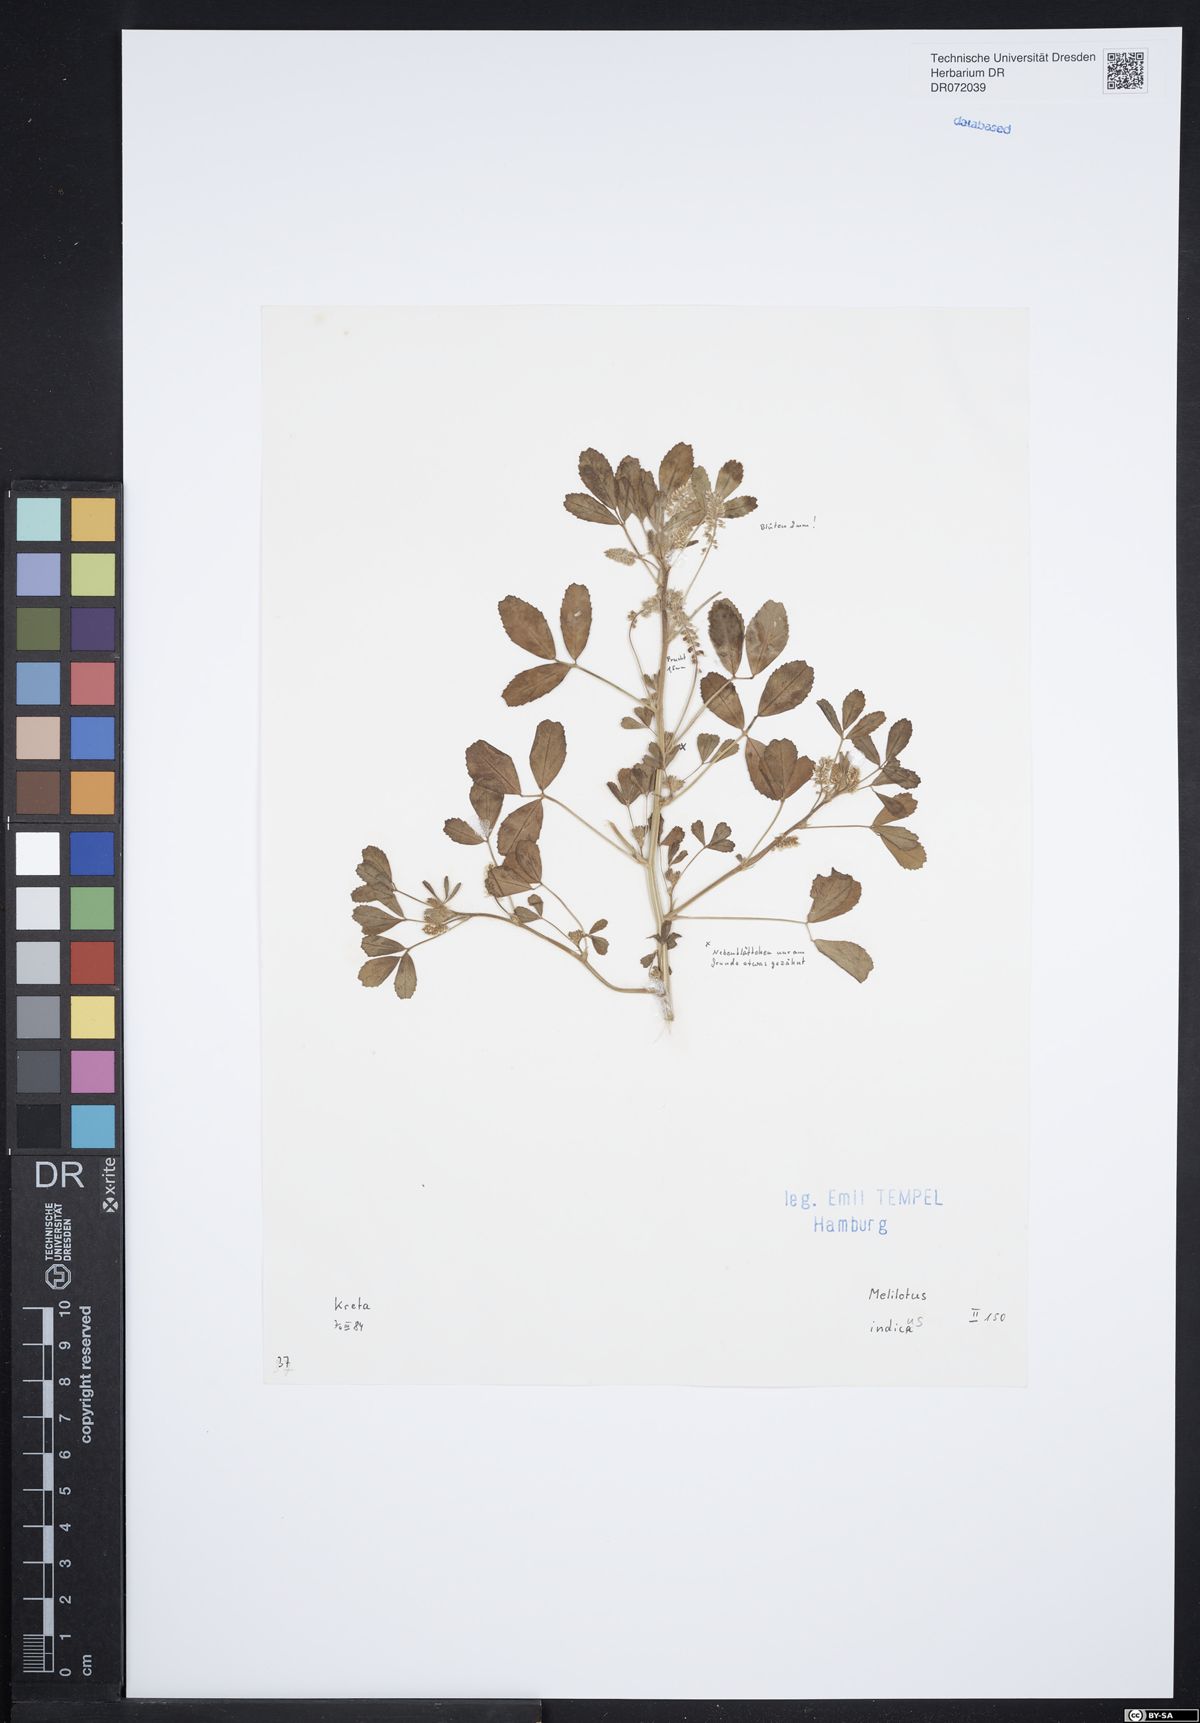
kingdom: Plantae
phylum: Tracheophyta
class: Magnoliopsida
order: Fabales
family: Fabaceae
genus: Melilotus
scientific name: Melilotus indicus
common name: Small melilot
